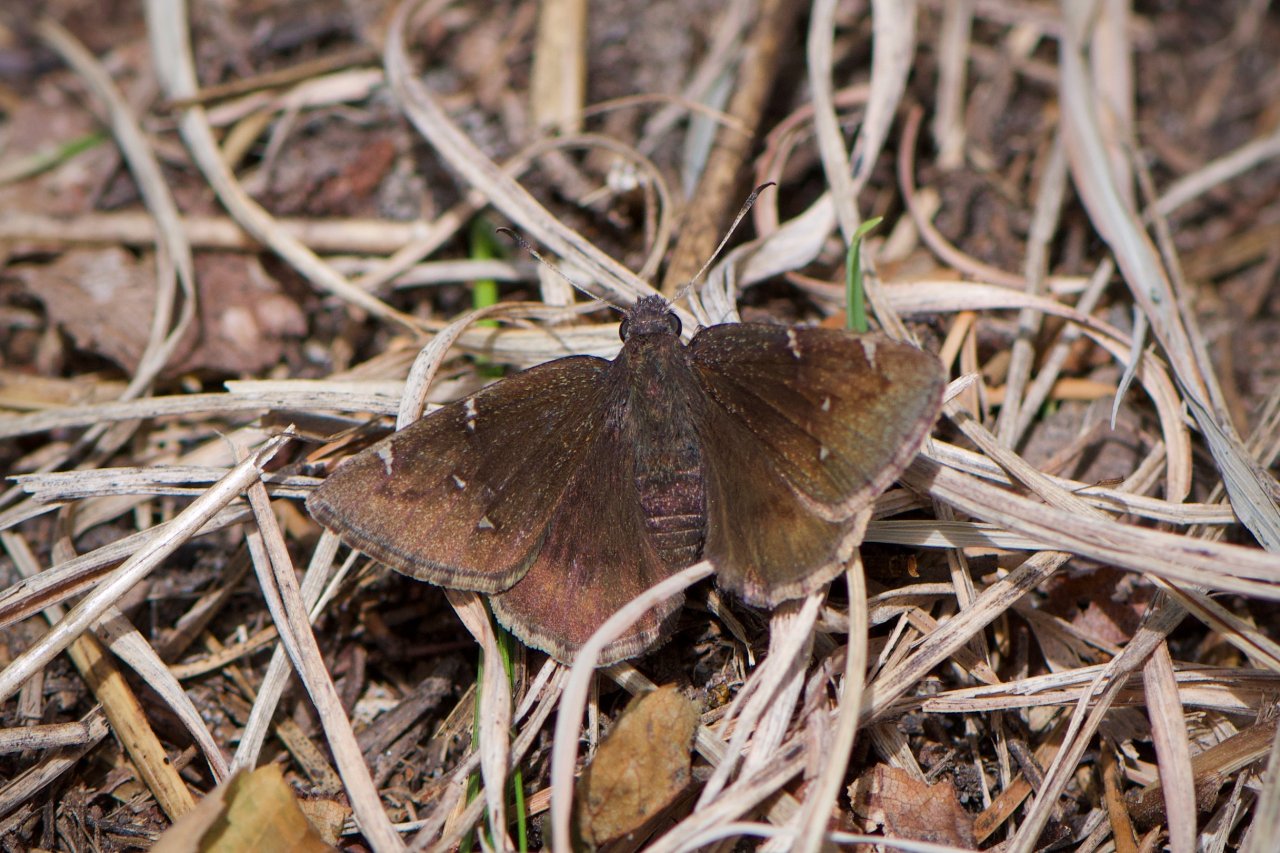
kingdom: Animalia
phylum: Arthropoda
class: Insecta
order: Lepidoptera
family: Hesperiidae
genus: Autochton
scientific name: Autochton
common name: Northern Cloudywing
